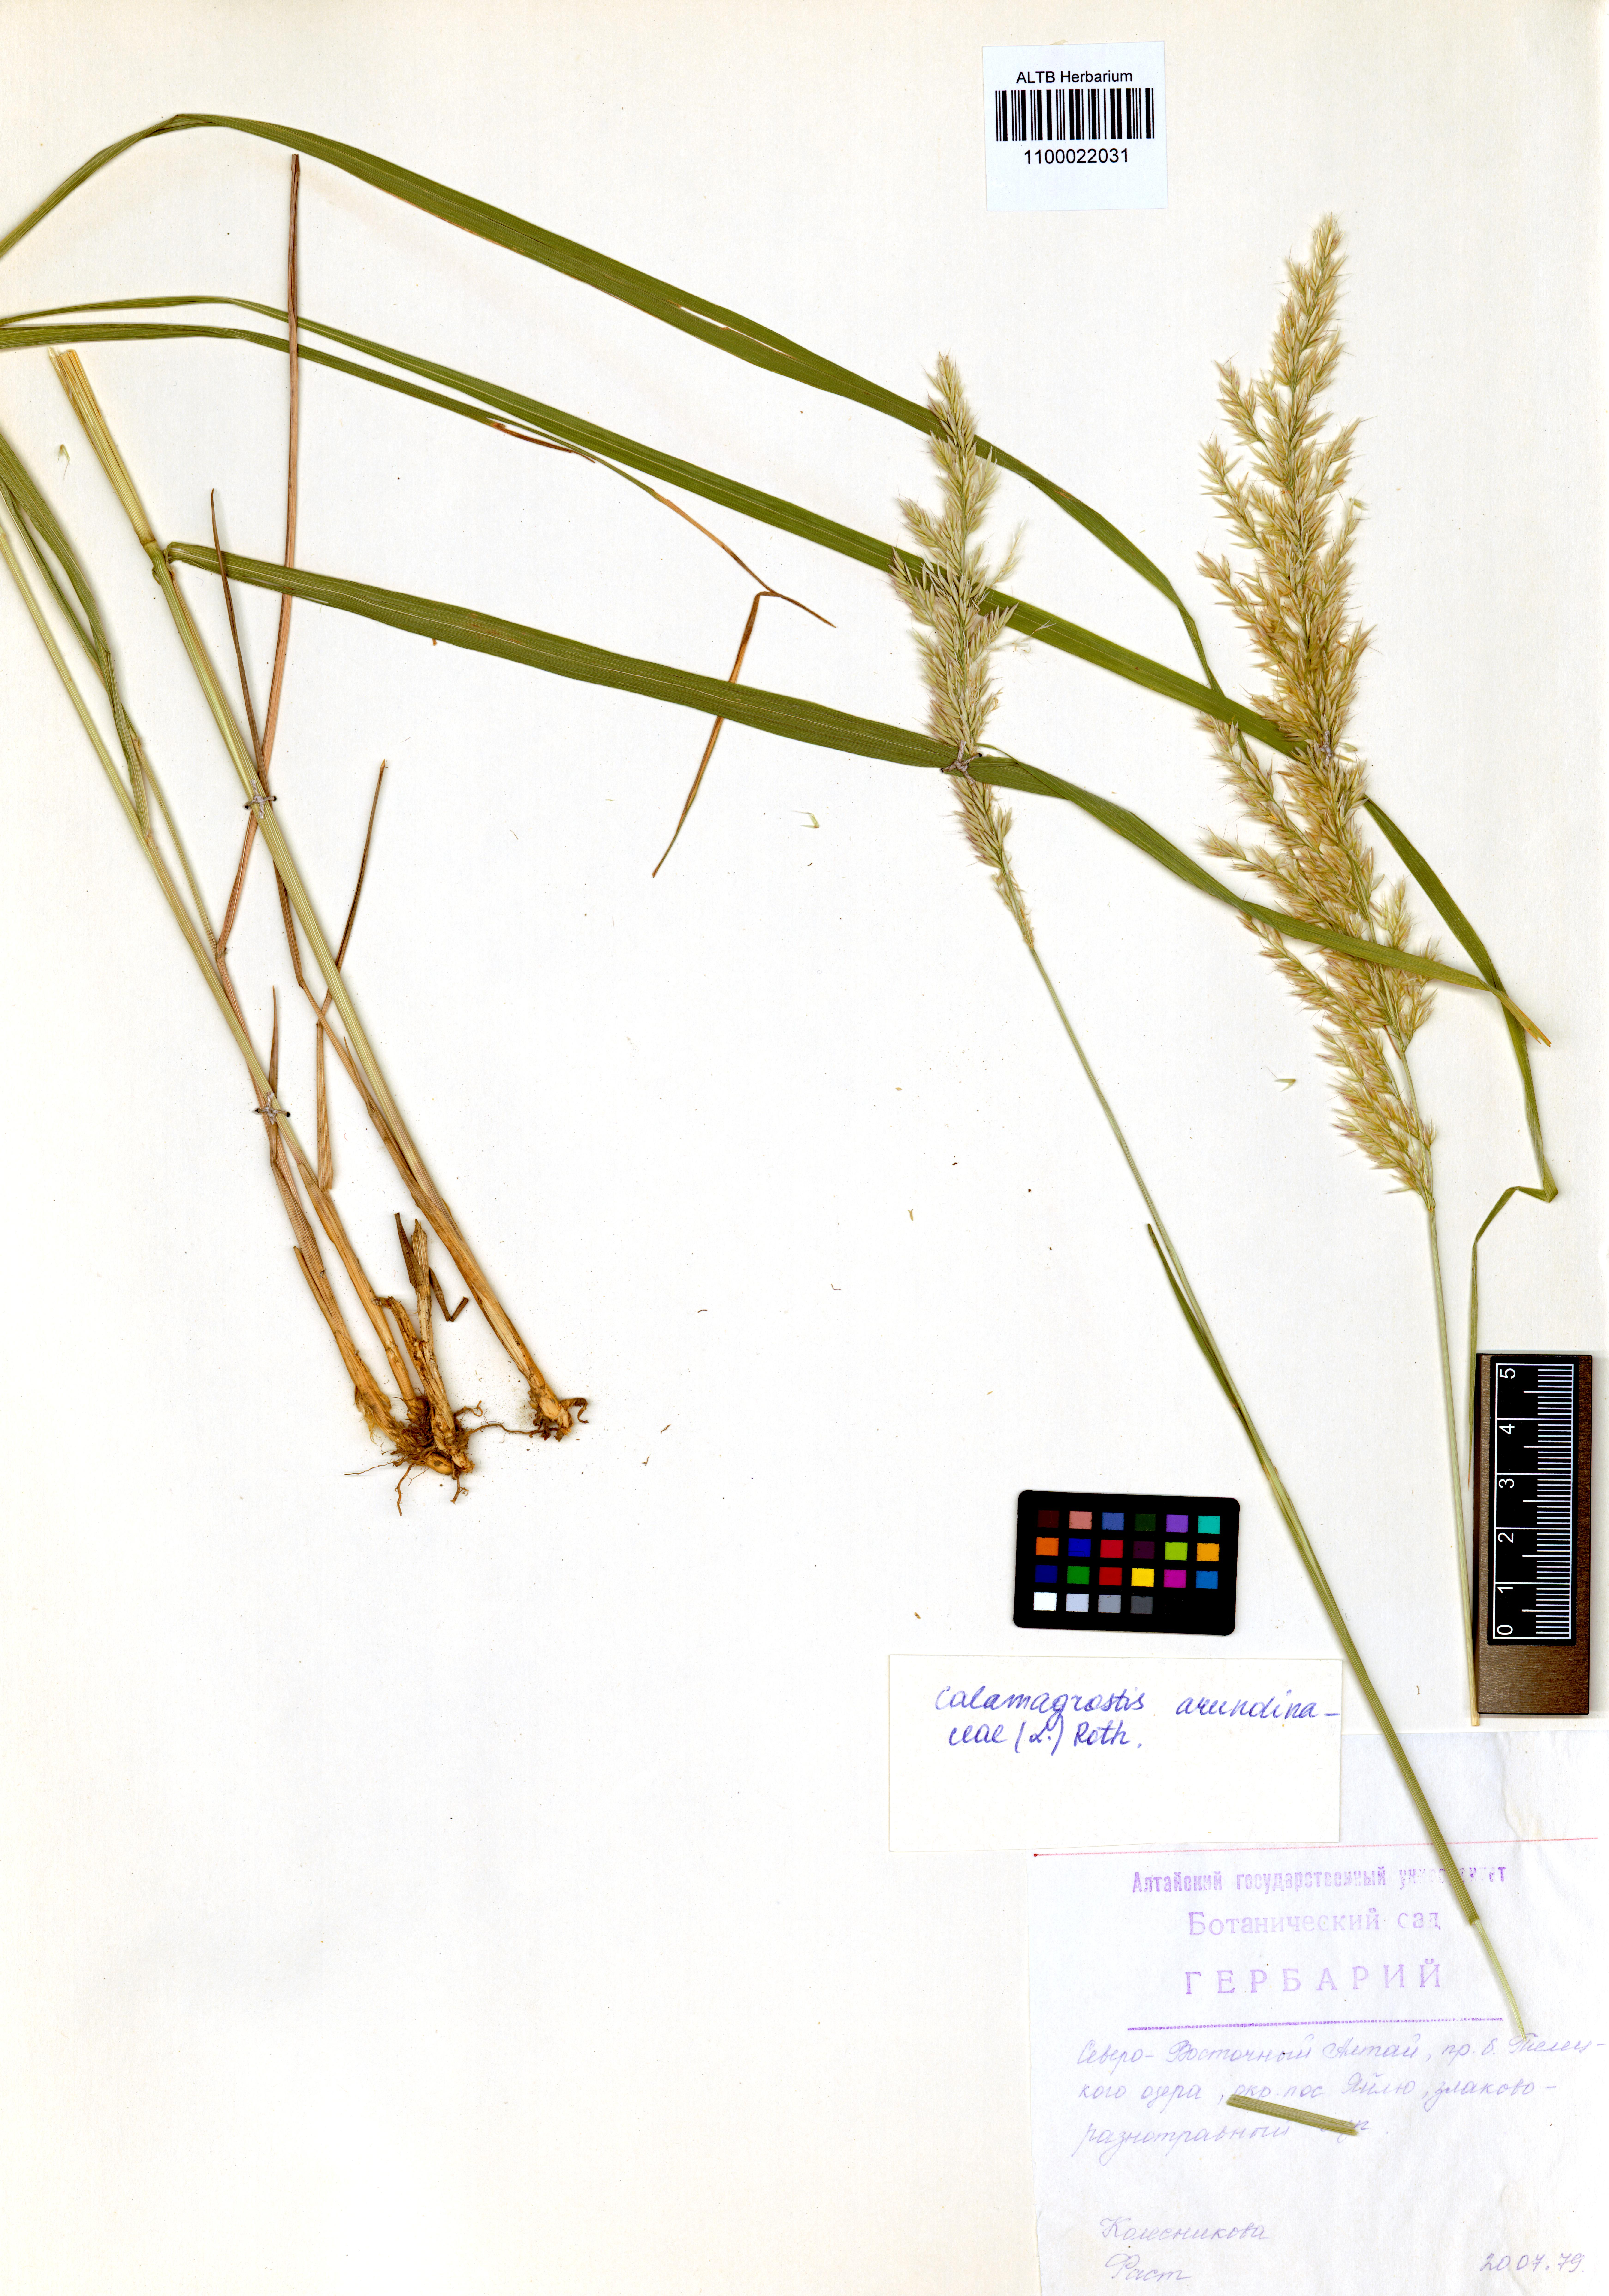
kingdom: Plantae
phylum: Tracheophyta
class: Liliopsida
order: Poales
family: Poaceae
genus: Calamagrostis
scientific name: Calamagrostis arundinacea
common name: Metskastik
